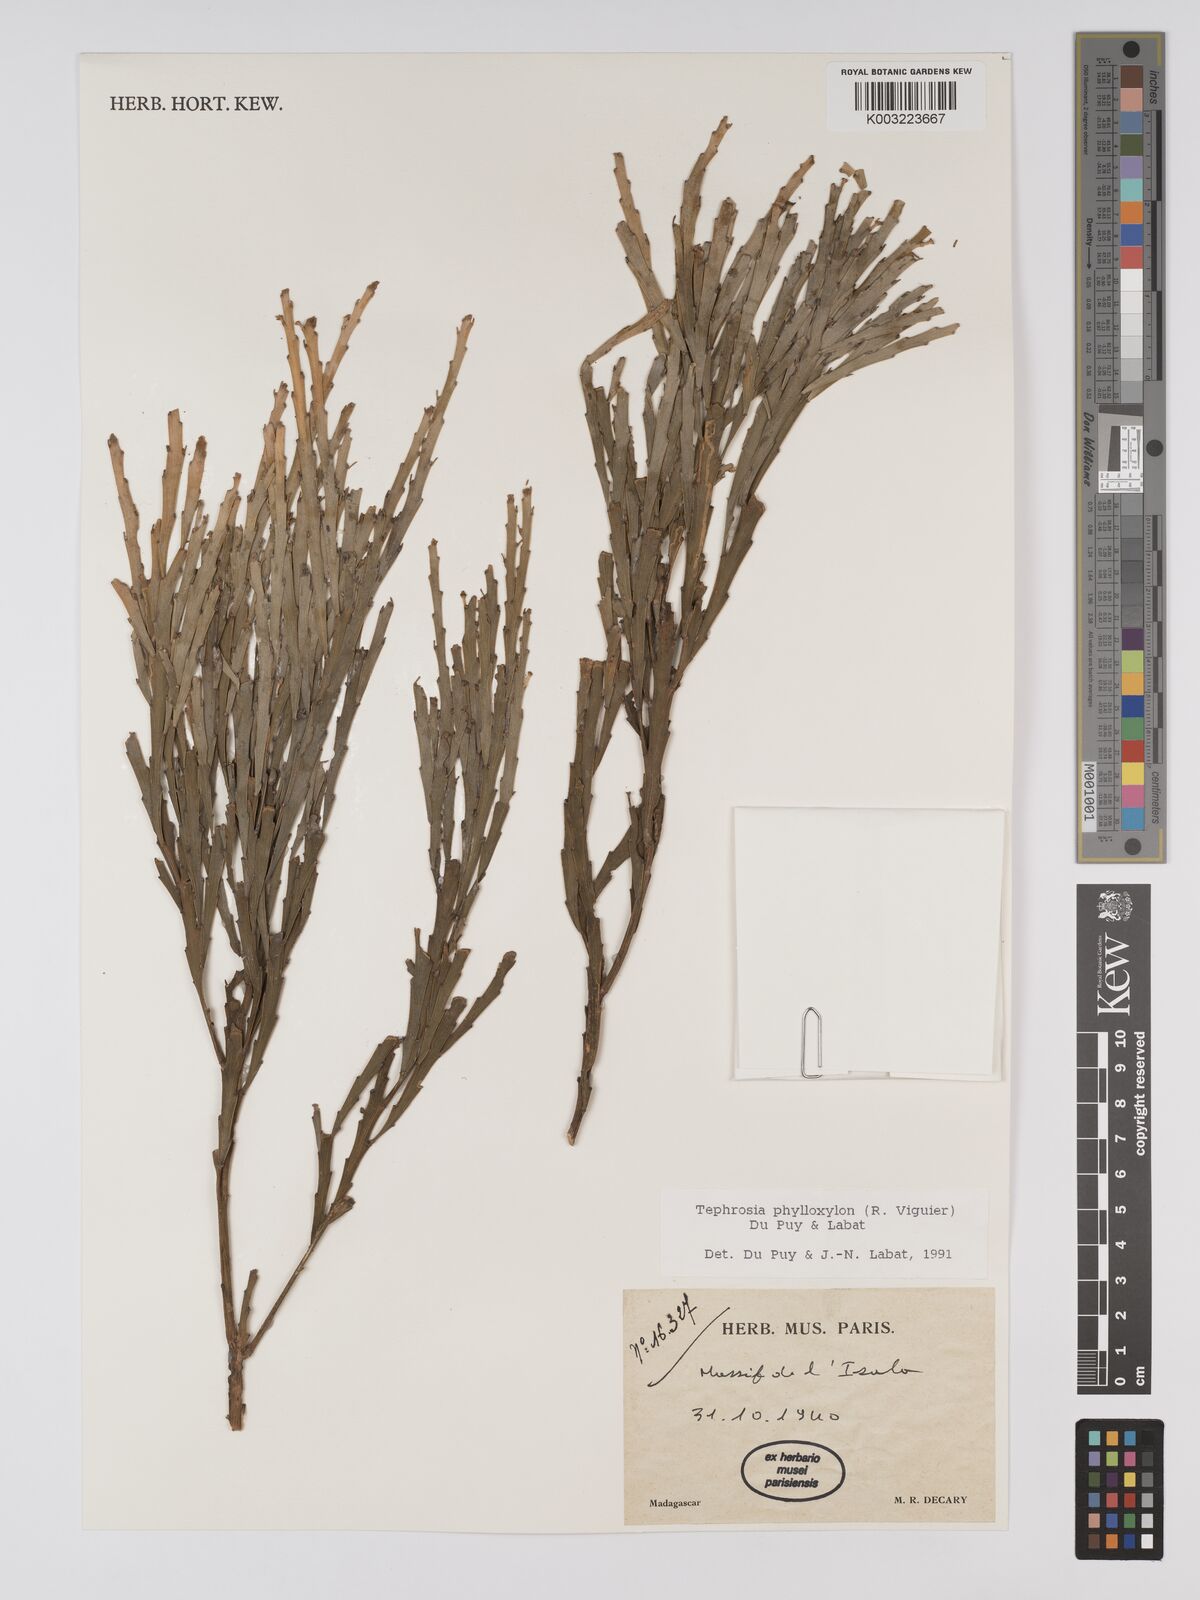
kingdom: Plantae
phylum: Tracheophyta
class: Magnoliopsida
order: Fabales
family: Fabaceae
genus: Tephrosia
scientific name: Tephrosia phylloxylon
